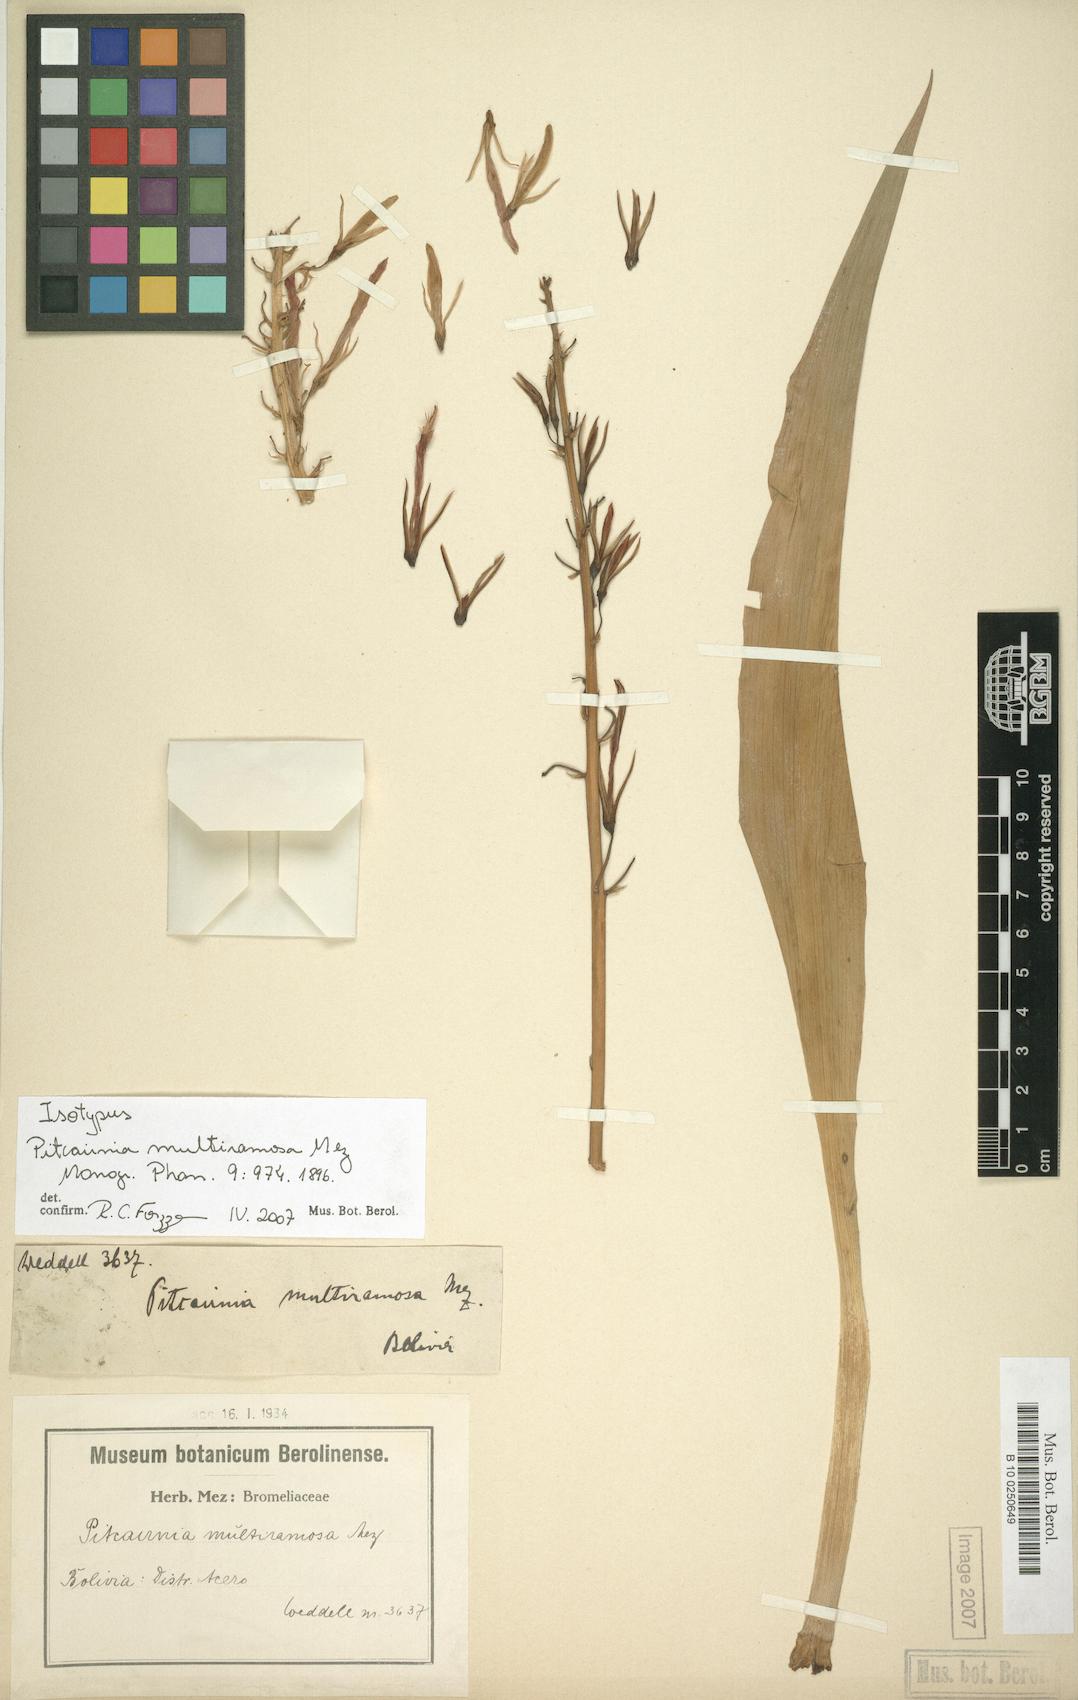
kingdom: Plantae
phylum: Tracheophyta
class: Liliopsida
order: Poales
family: Bromeliaceae
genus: Pitcairnia
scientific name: Pitcairnia multiramosa
